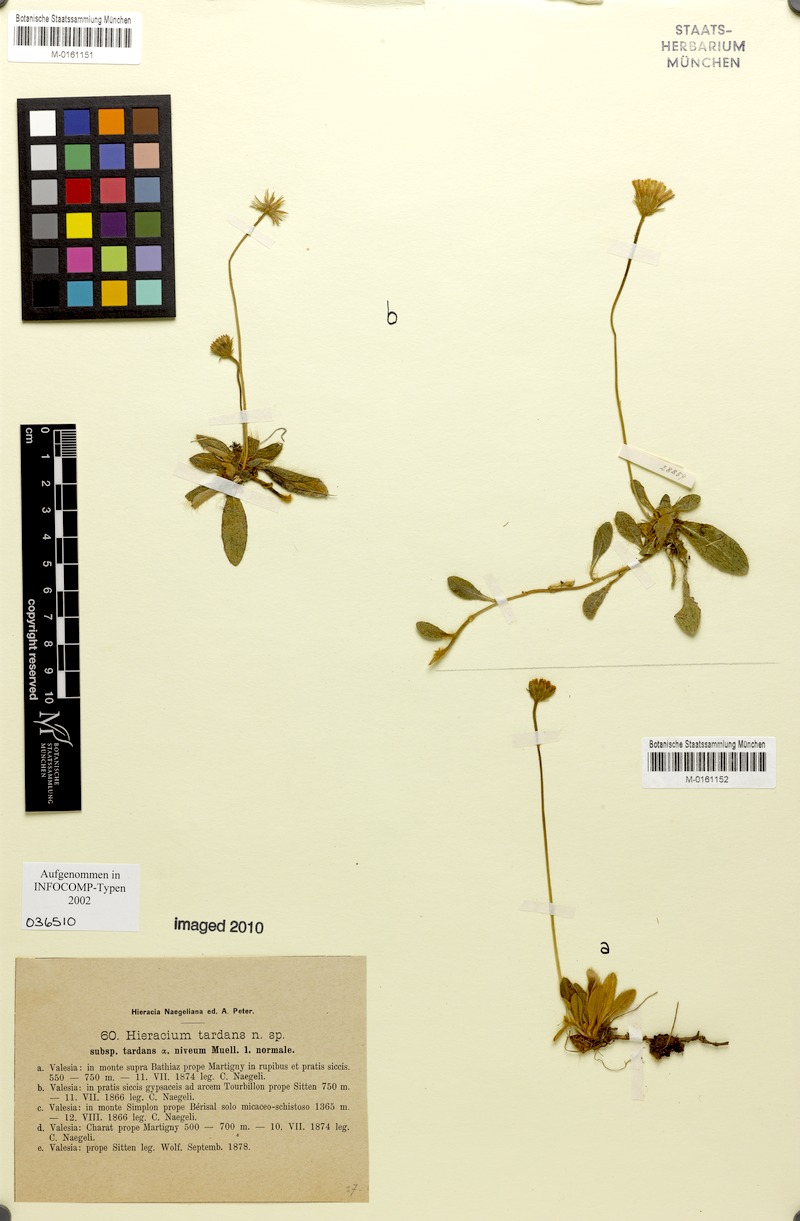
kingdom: Plantae
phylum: Tracheophyta
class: Magnoliopsida
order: Asterales
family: Asteraceae
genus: Pilosella
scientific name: Pilosella tardans
